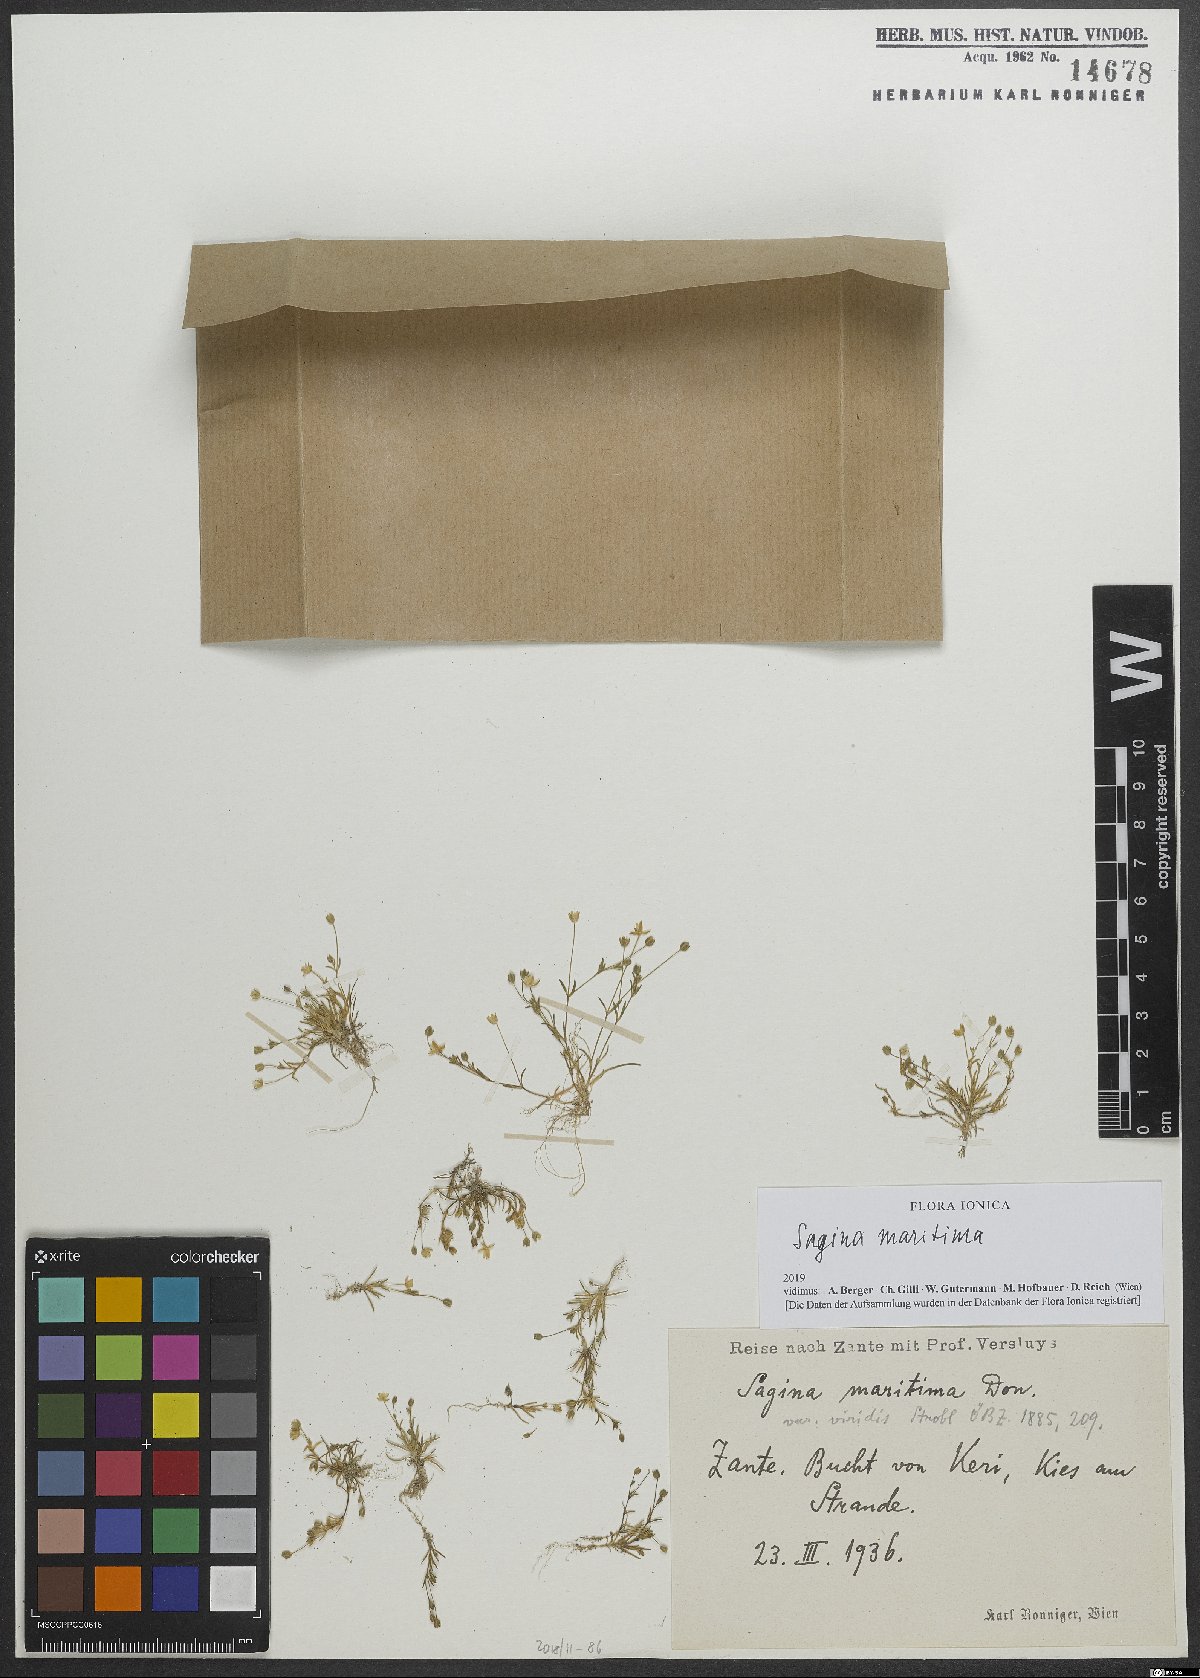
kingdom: Plantae
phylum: Tracheophyta
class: Magnoliopsida
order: Caryophyllales
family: Caryophyllaceae
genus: Sagina
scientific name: Sagina maritima
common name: Sea pearlwort
